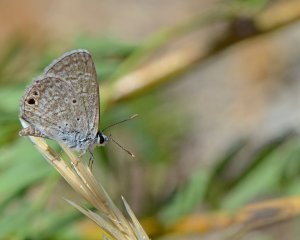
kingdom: Animalia
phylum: Arthropoda
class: Insecta
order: Lepidoptera
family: Lycaenidae
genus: Hemiargus
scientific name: Hemiargus ceraunus
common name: Ceraunus Blue
